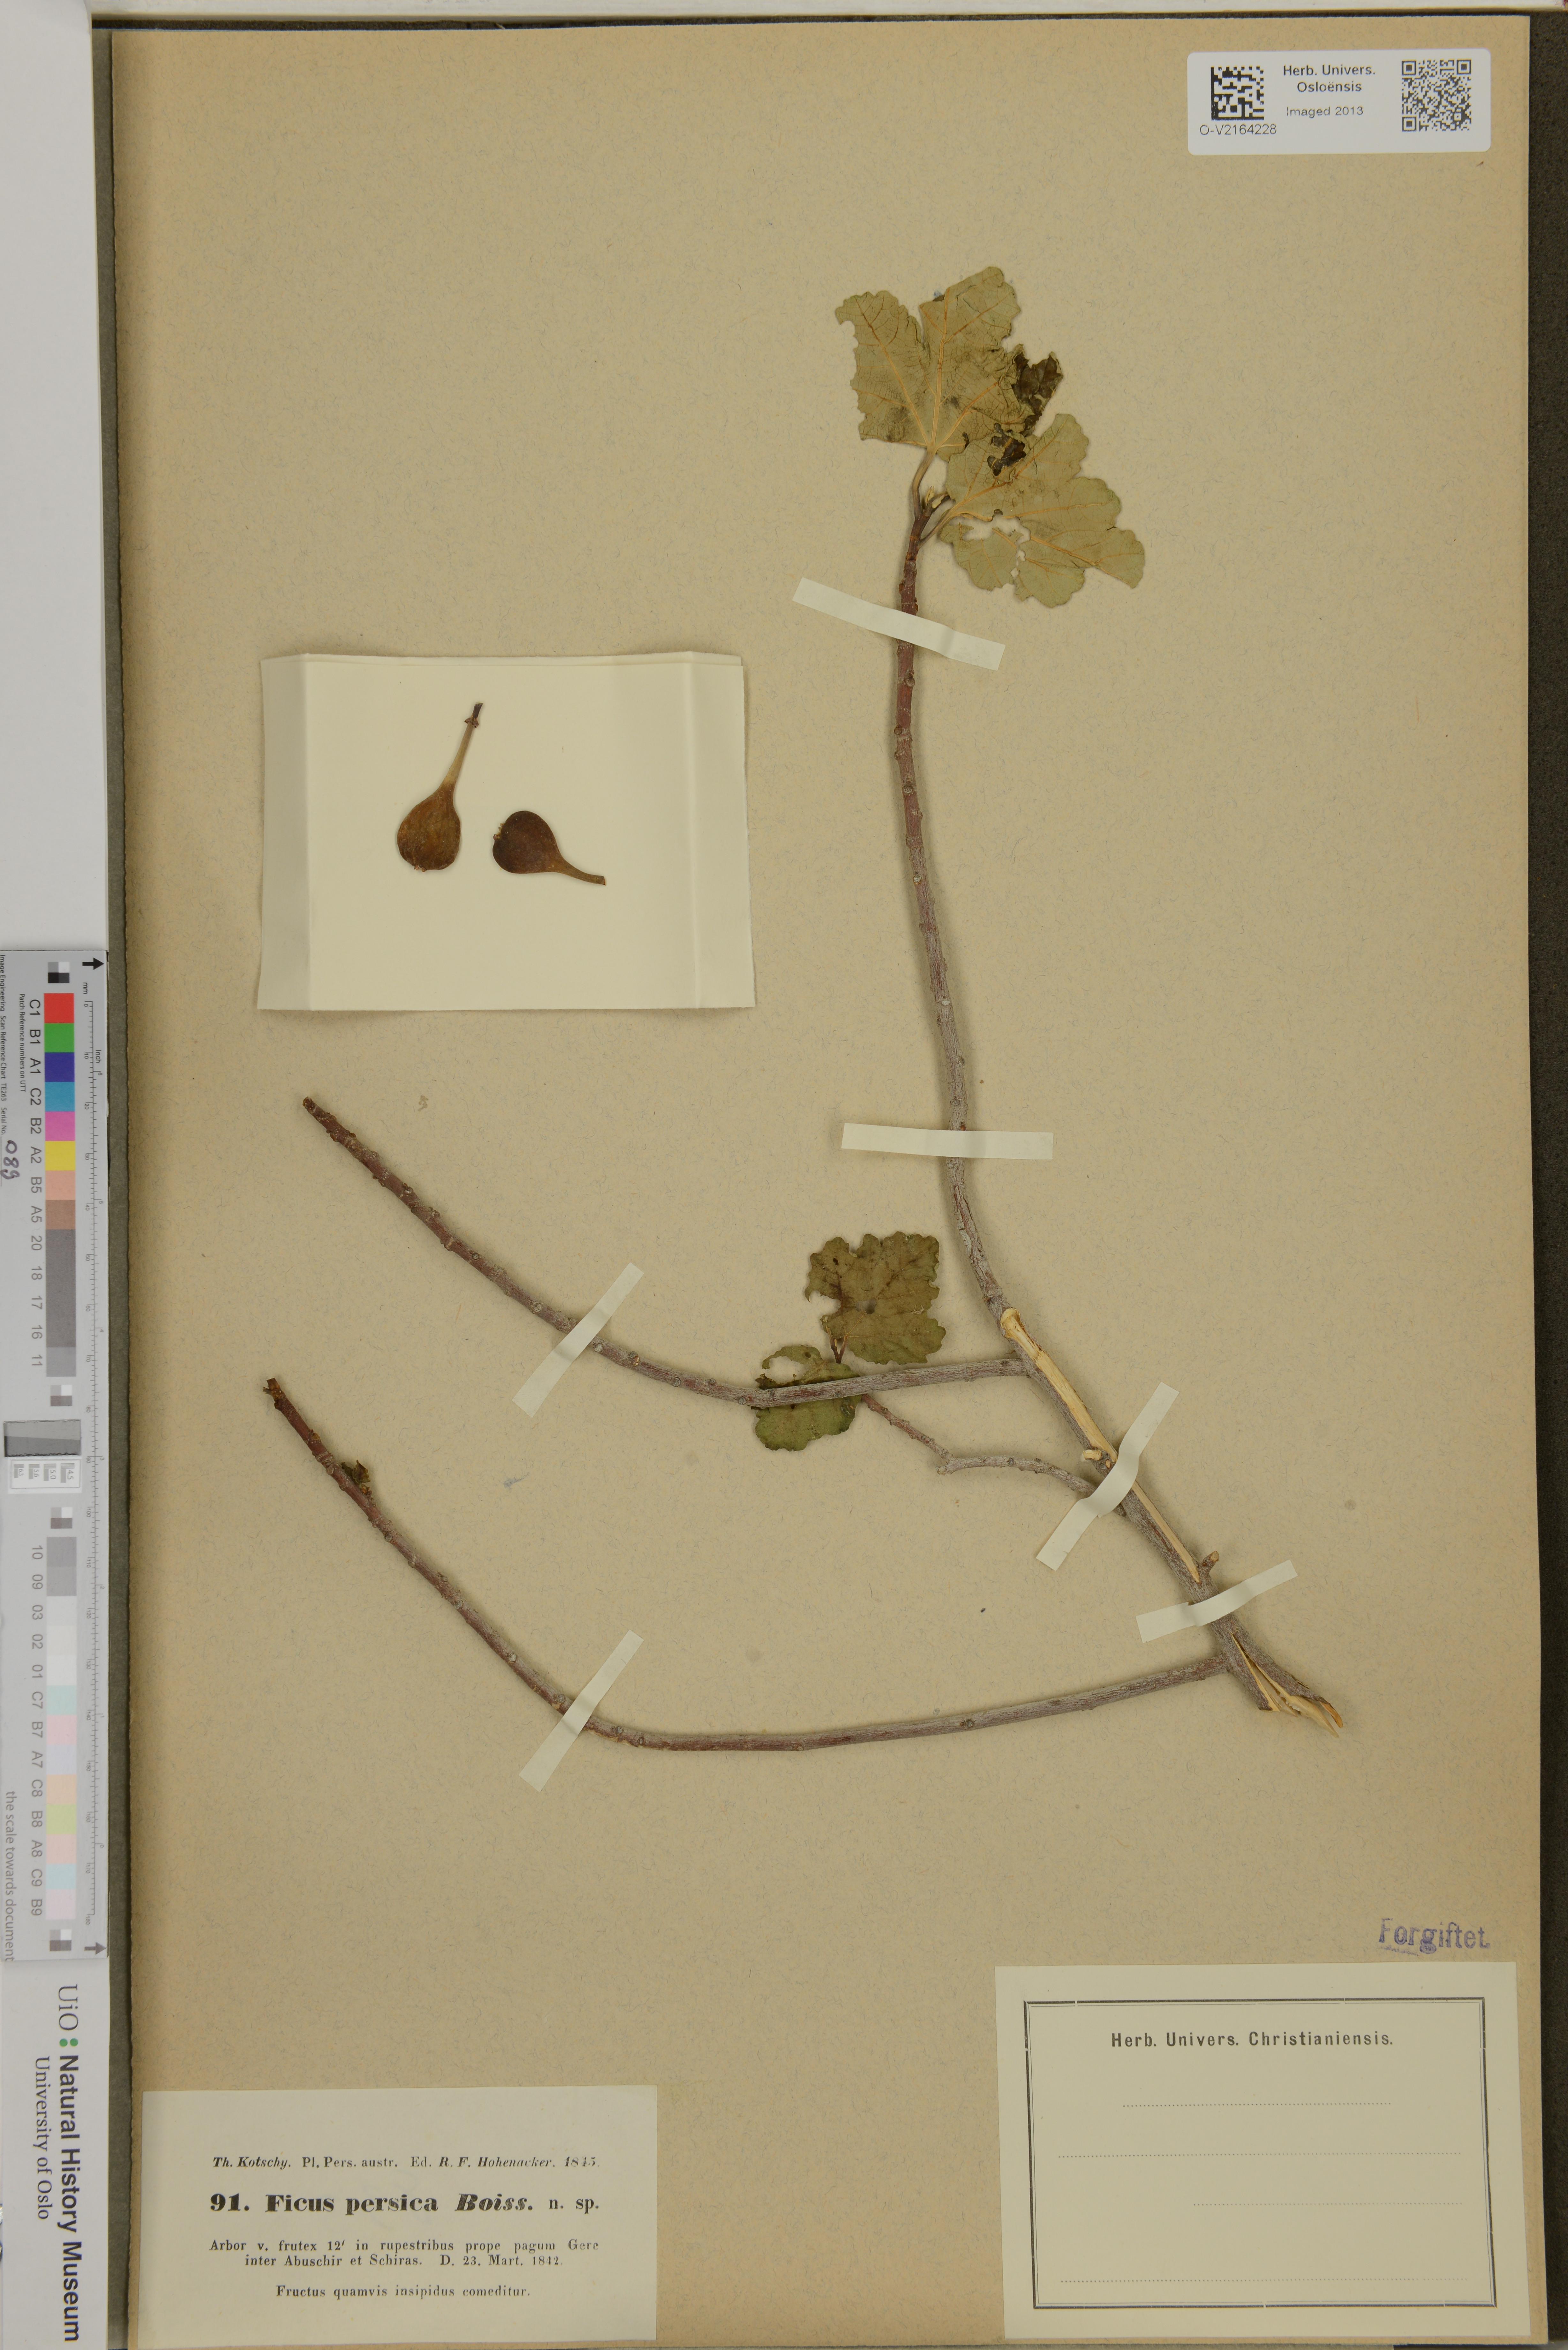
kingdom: Plantae
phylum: Tracheophyta
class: Magnoliopsida
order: Rosales
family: Moraceae
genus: Ficus
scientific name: Ficus johannis
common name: Mountain fig
